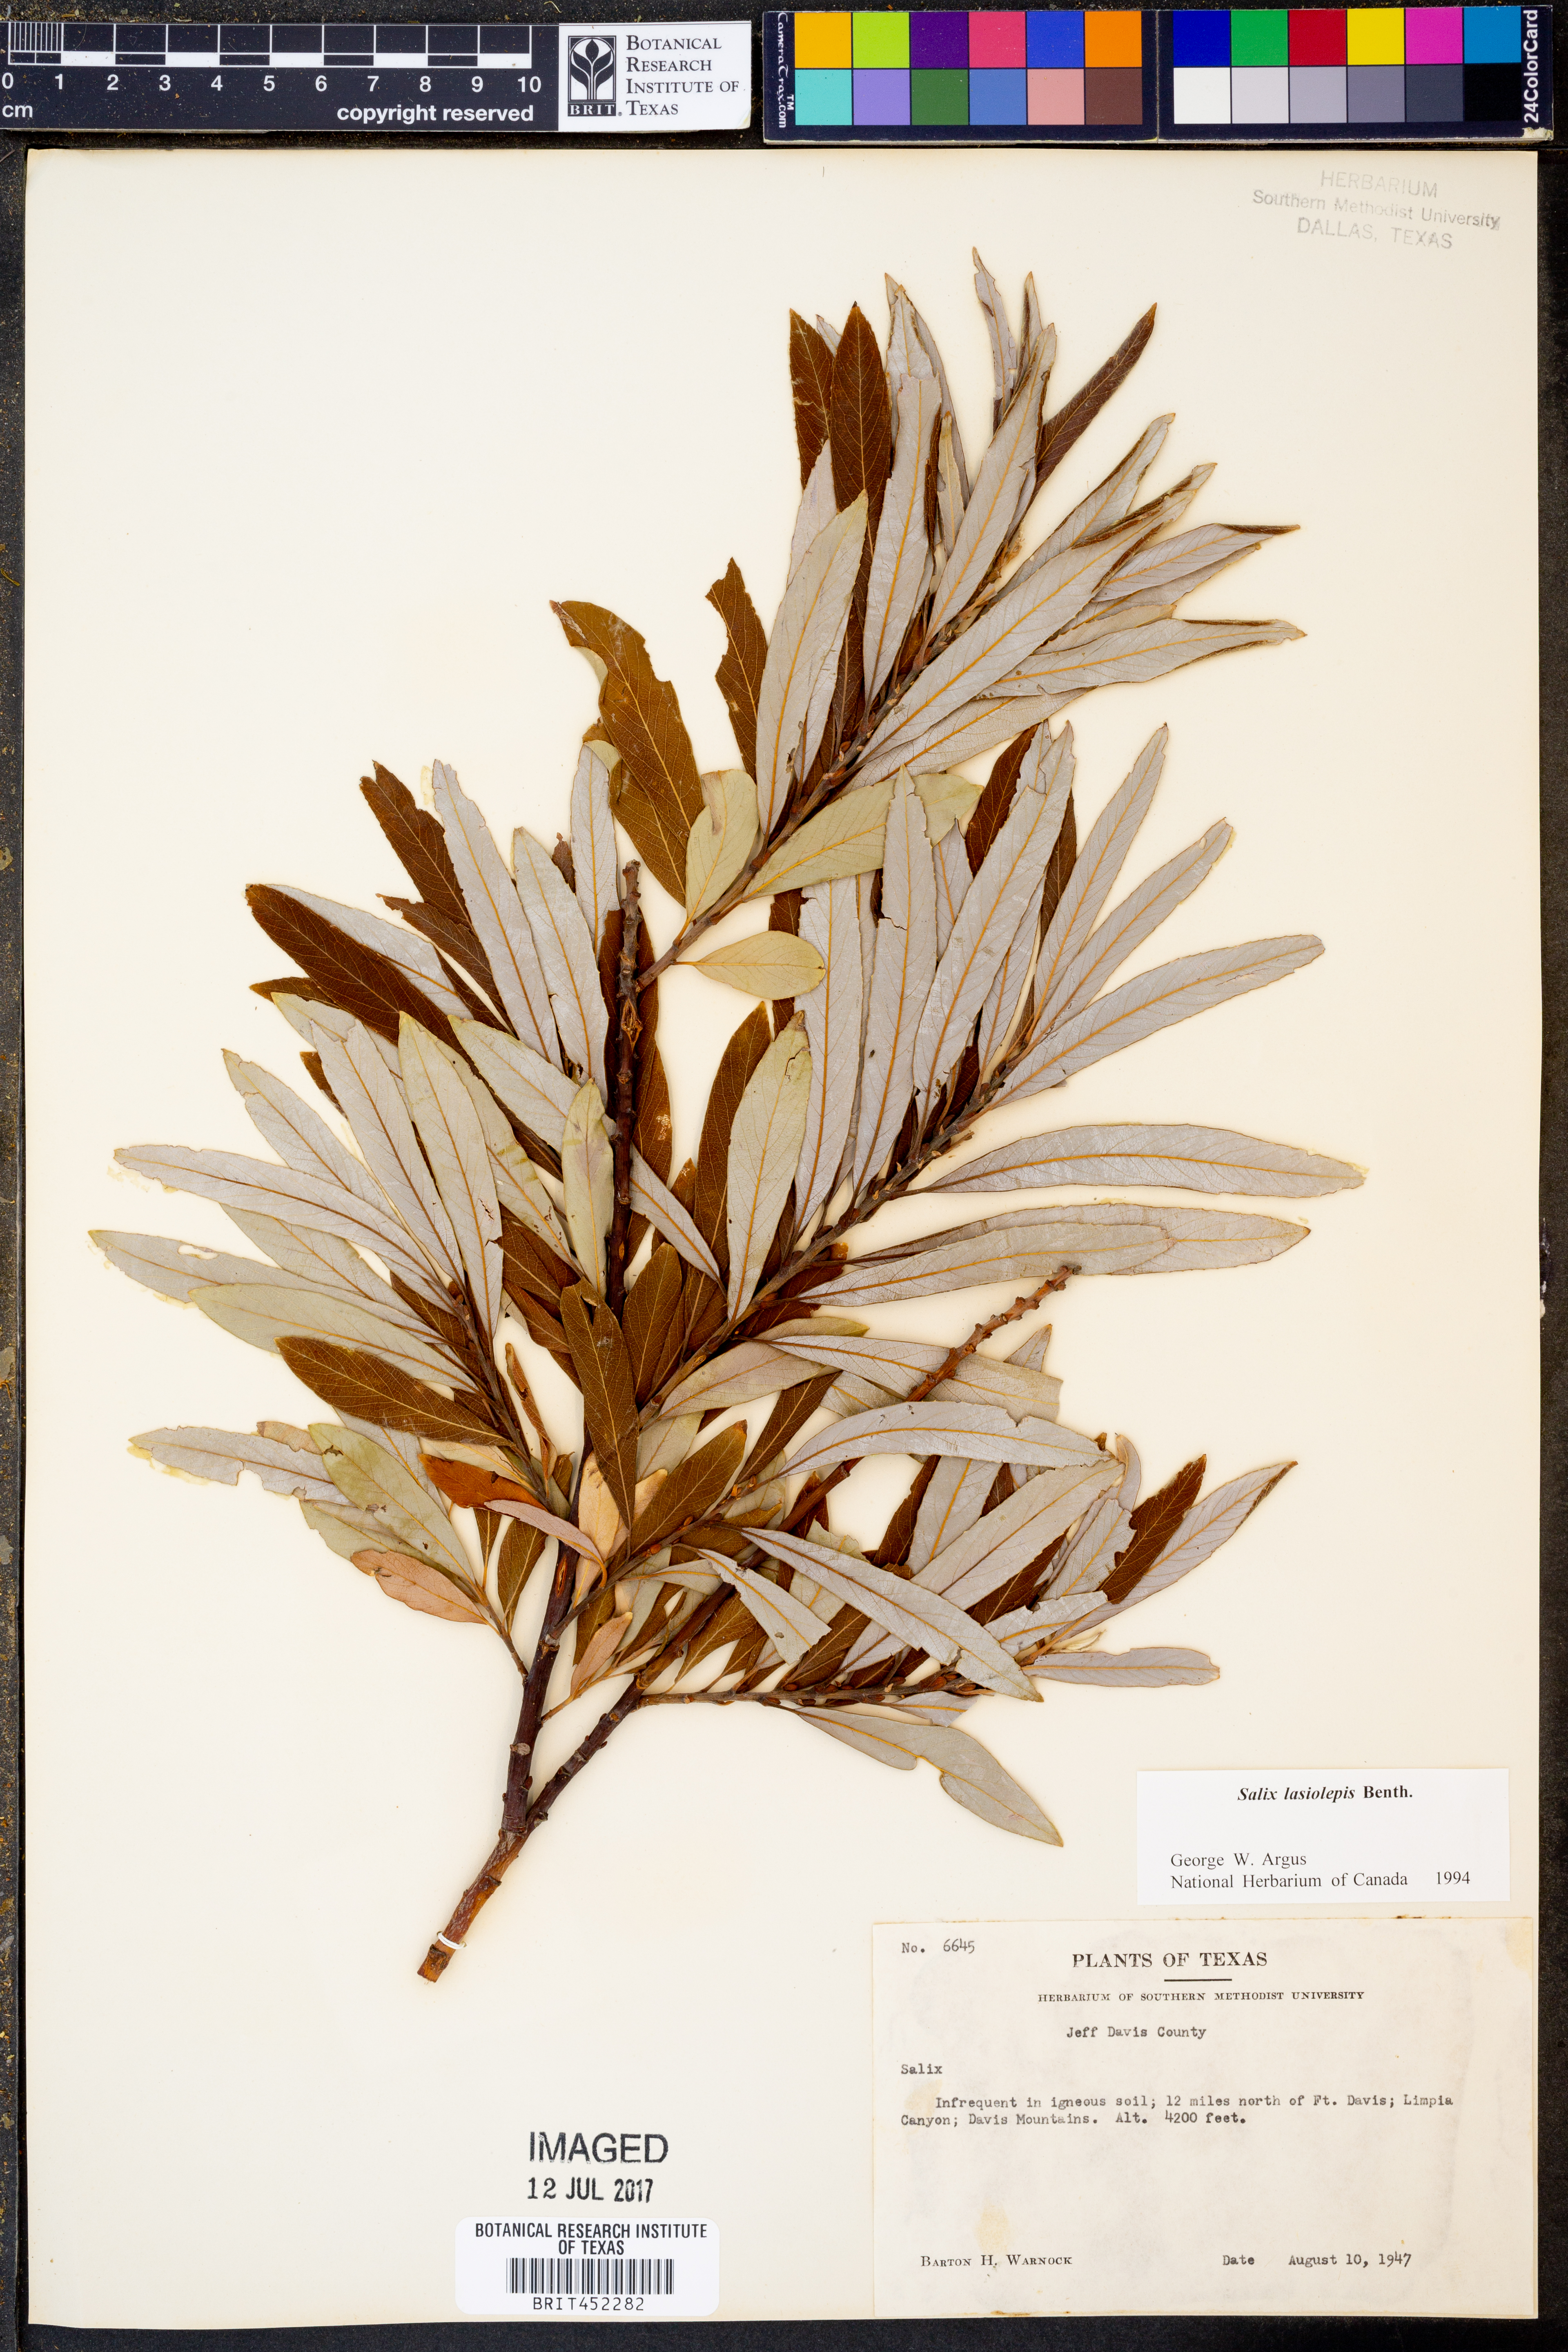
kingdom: Plantae
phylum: Tracheophyta
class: Magnoliopsida
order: Malpighiales
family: Salicaceae
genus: Salix
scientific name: Salix lasiolepis
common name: Arroyo willow
